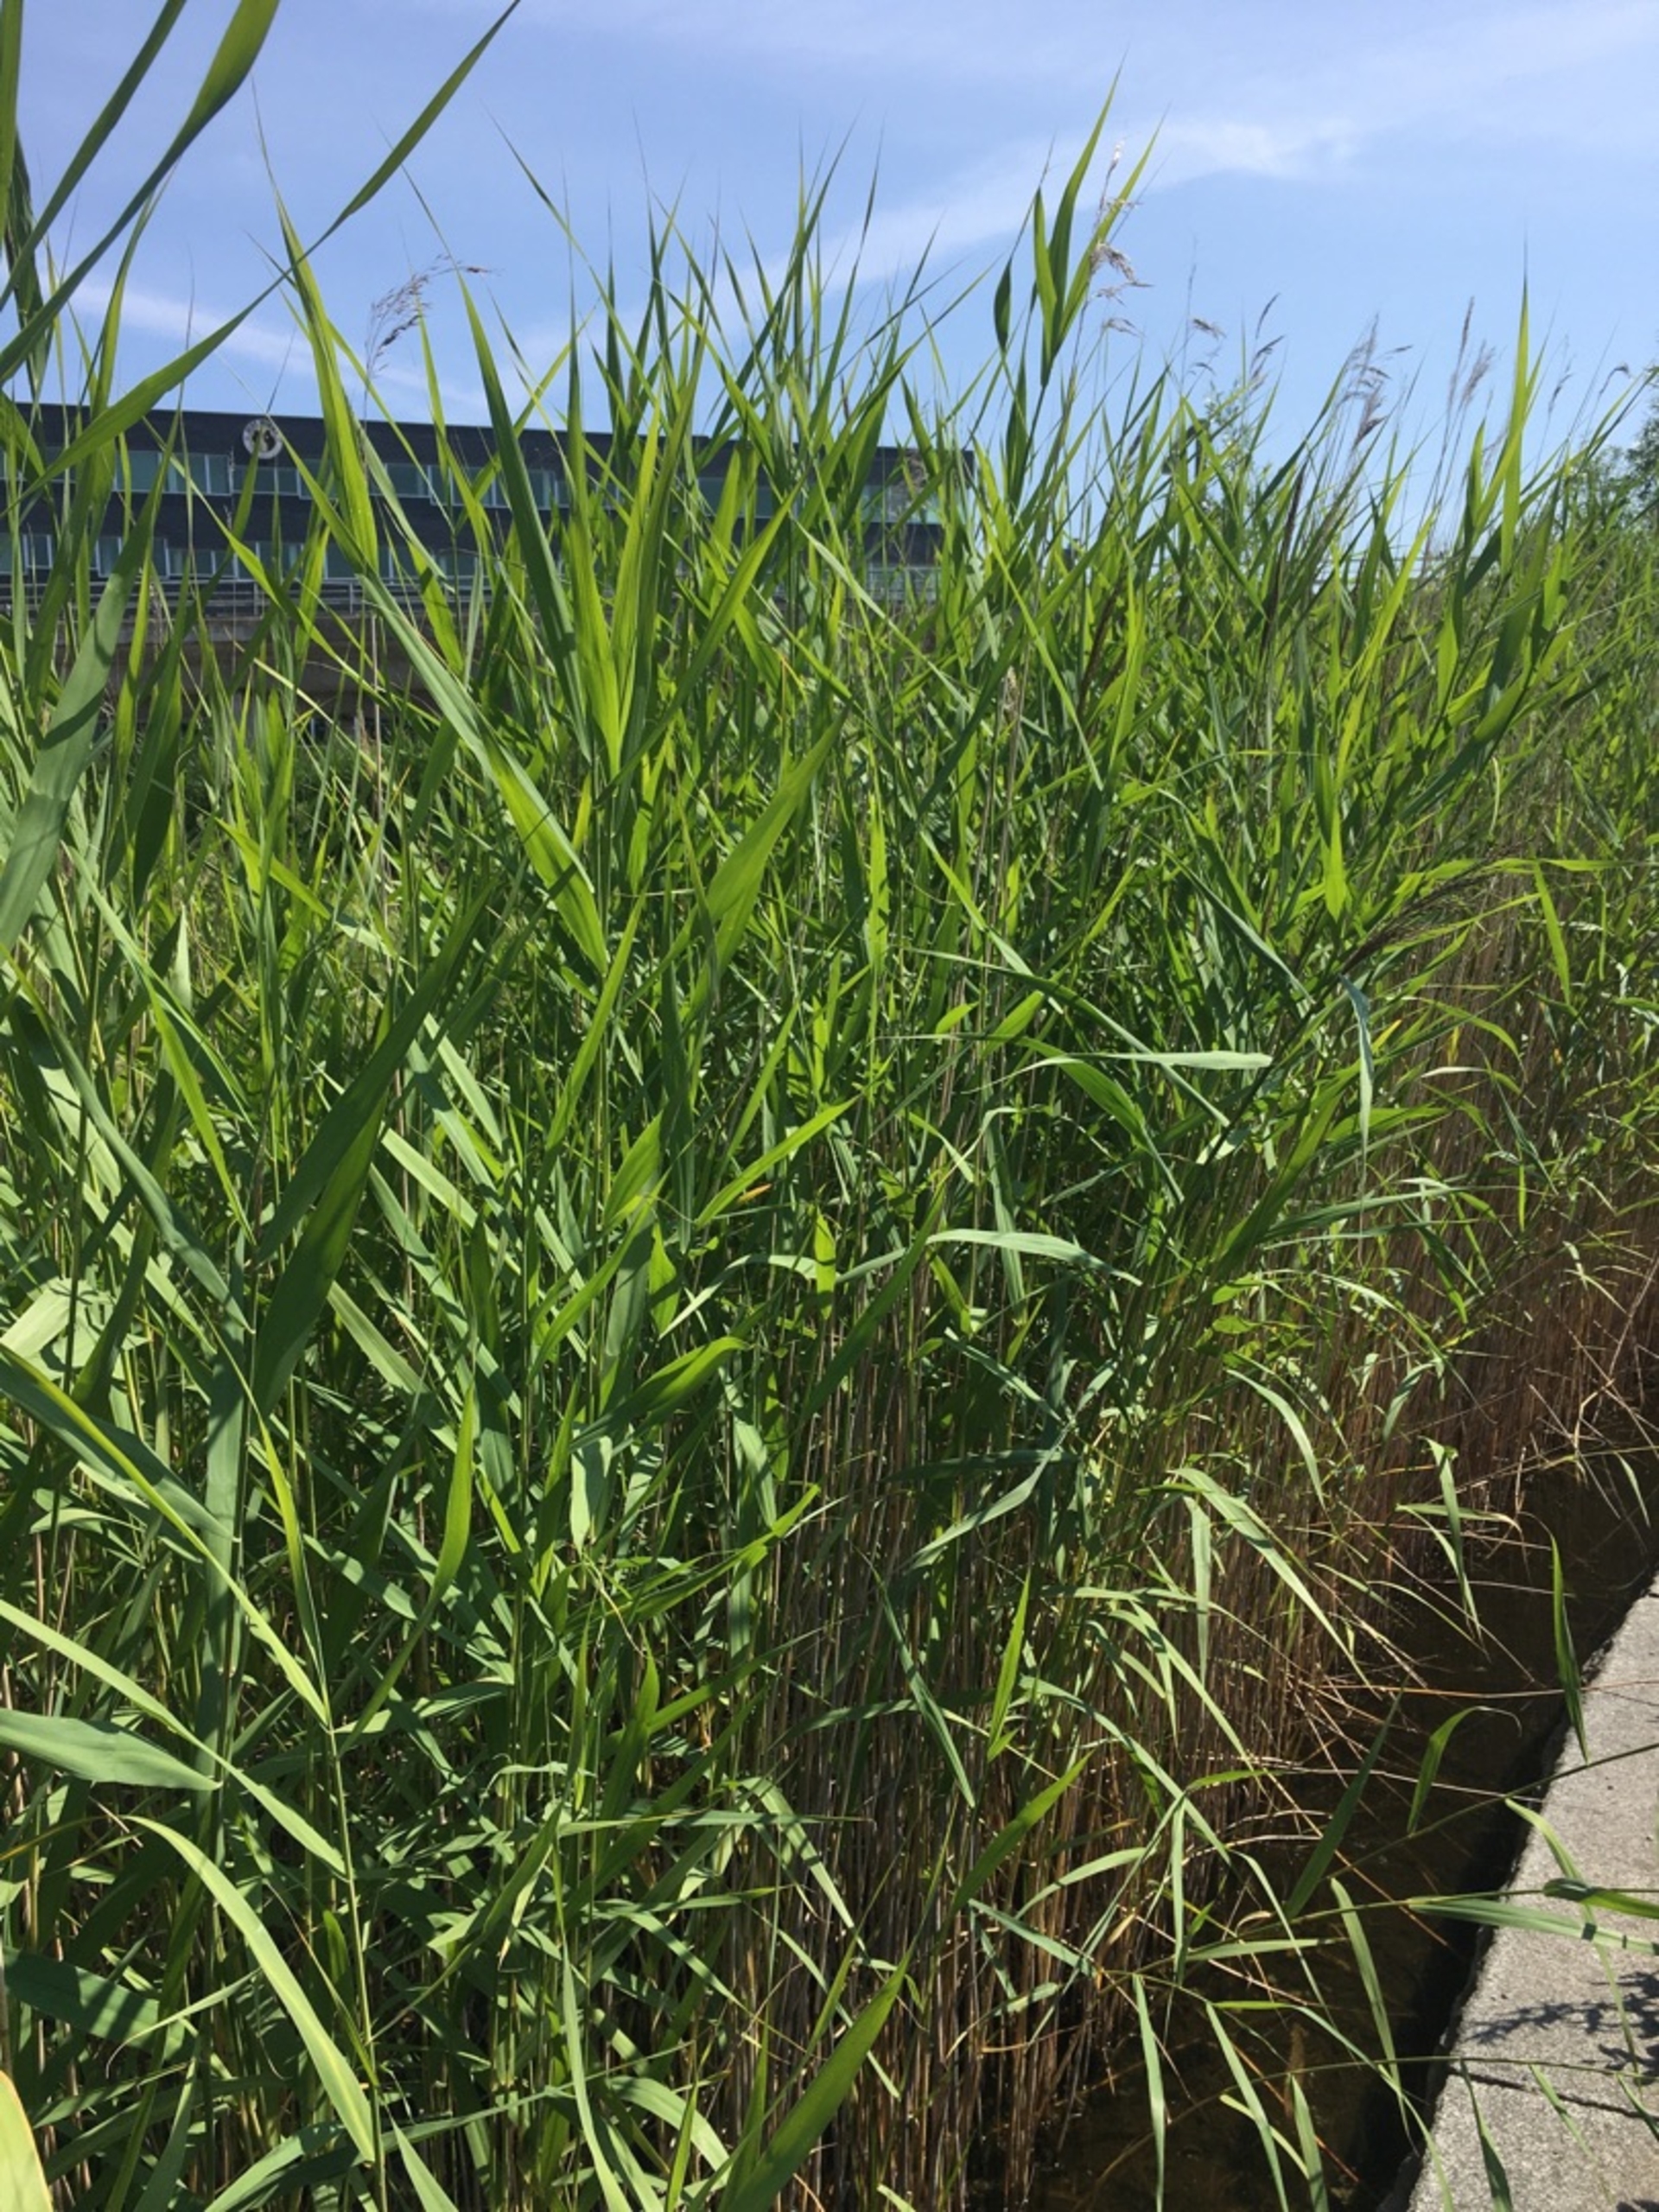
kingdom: Plantae
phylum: Tracheophyta
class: Liliopsida
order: Poales
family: Poaceae
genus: Phragmites
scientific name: Phragmites australis
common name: Tagrør
